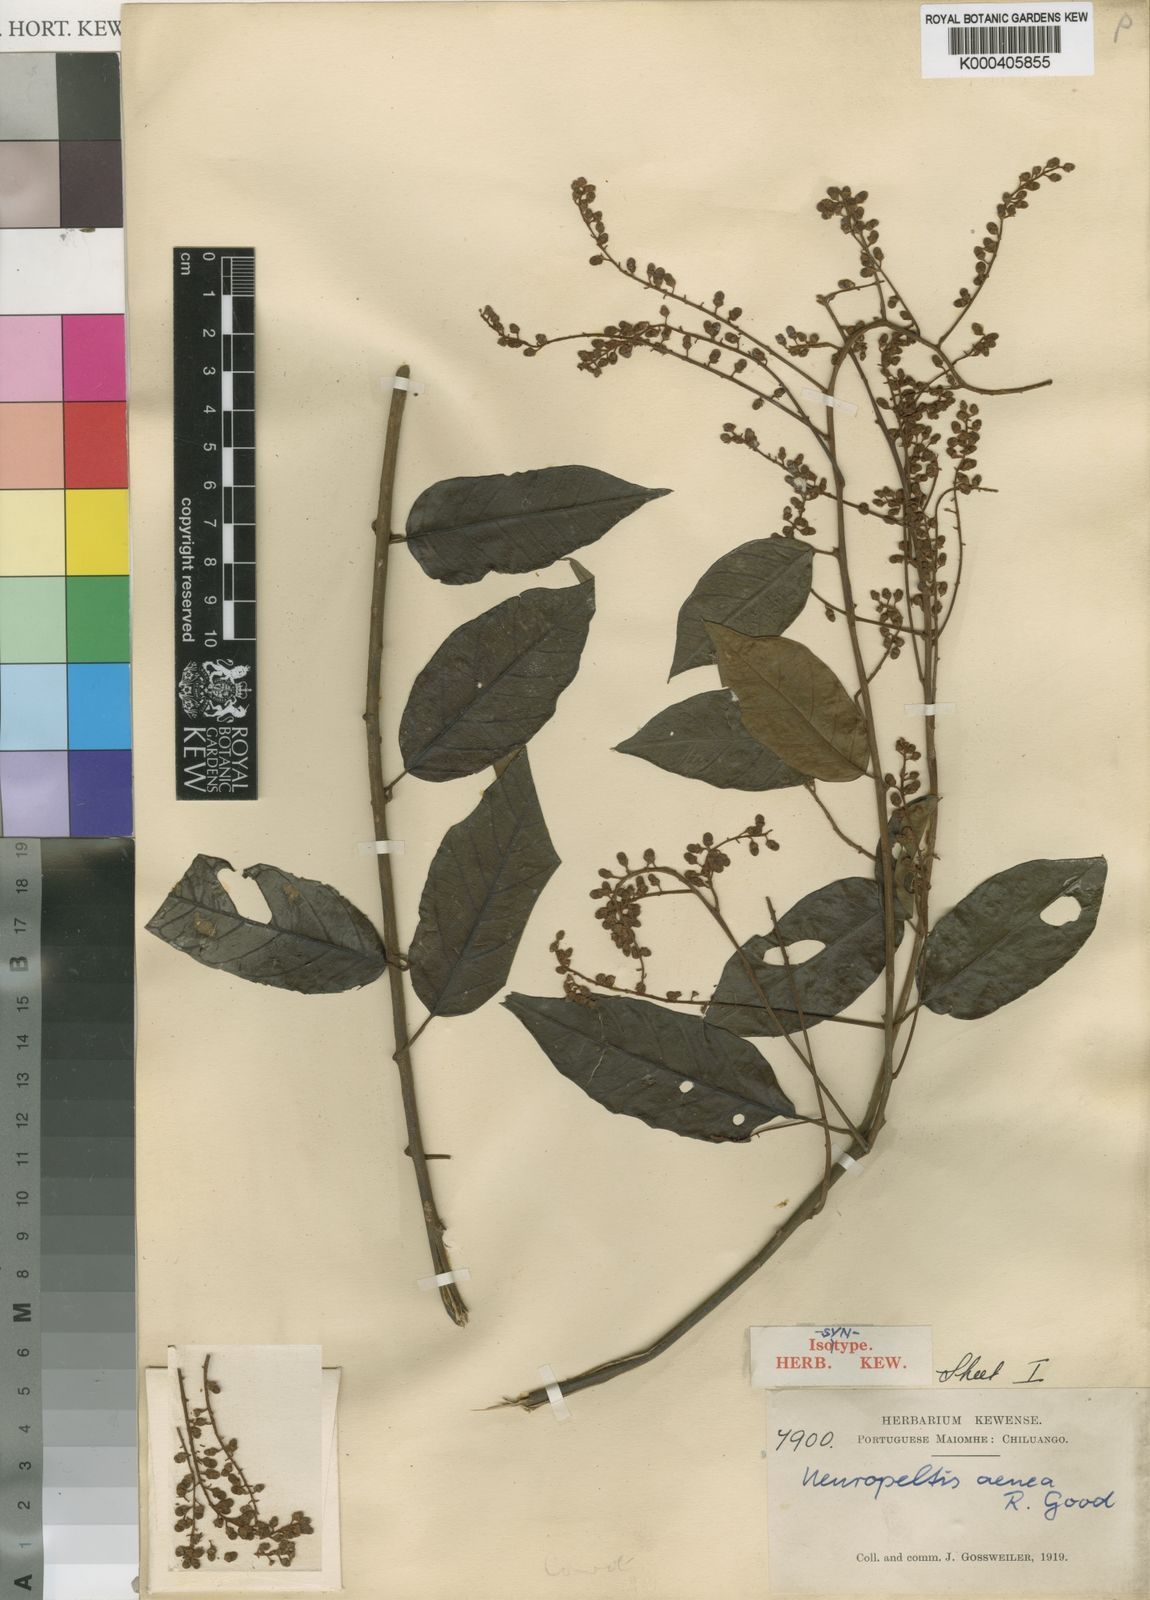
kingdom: Plantae
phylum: Tracheophyta
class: Magnoliopsida
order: Solanales
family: Convolvulaceae
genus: Neuropeltis
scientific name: Neuropeltis aenea
